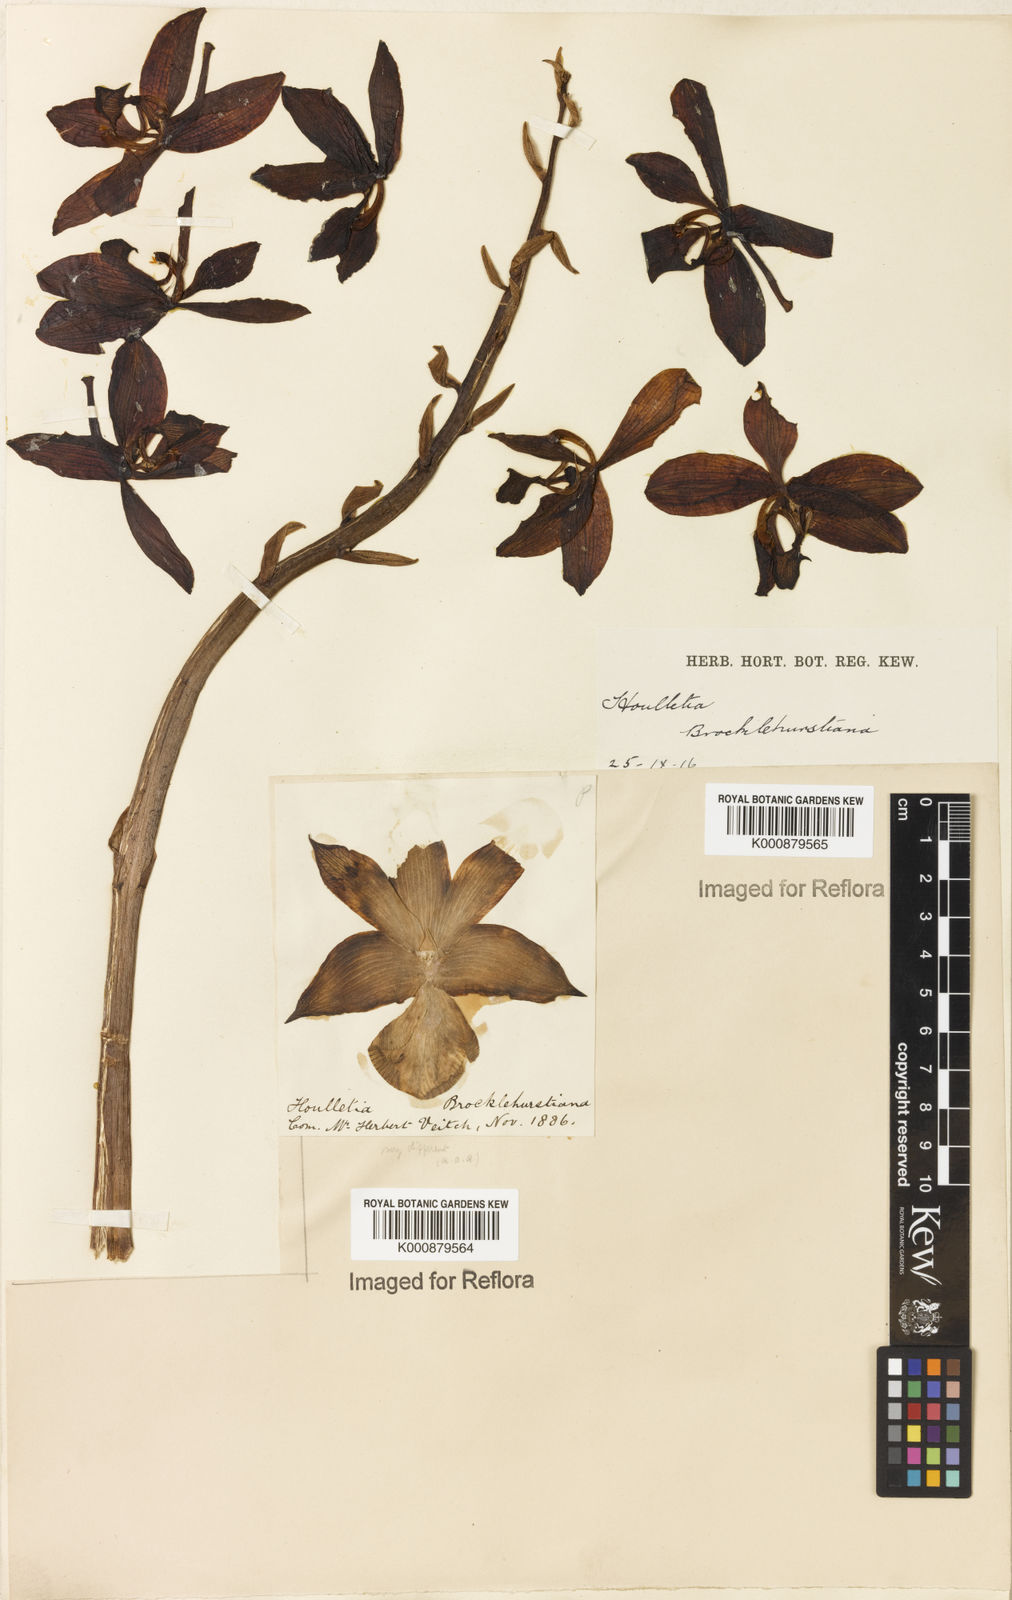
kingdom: Plantae
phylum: Tracheophyta
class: Liliopsida
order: Asparagales
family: Orchidaceae
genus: Houlletia
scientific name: Houlletia brocklehurstiana
